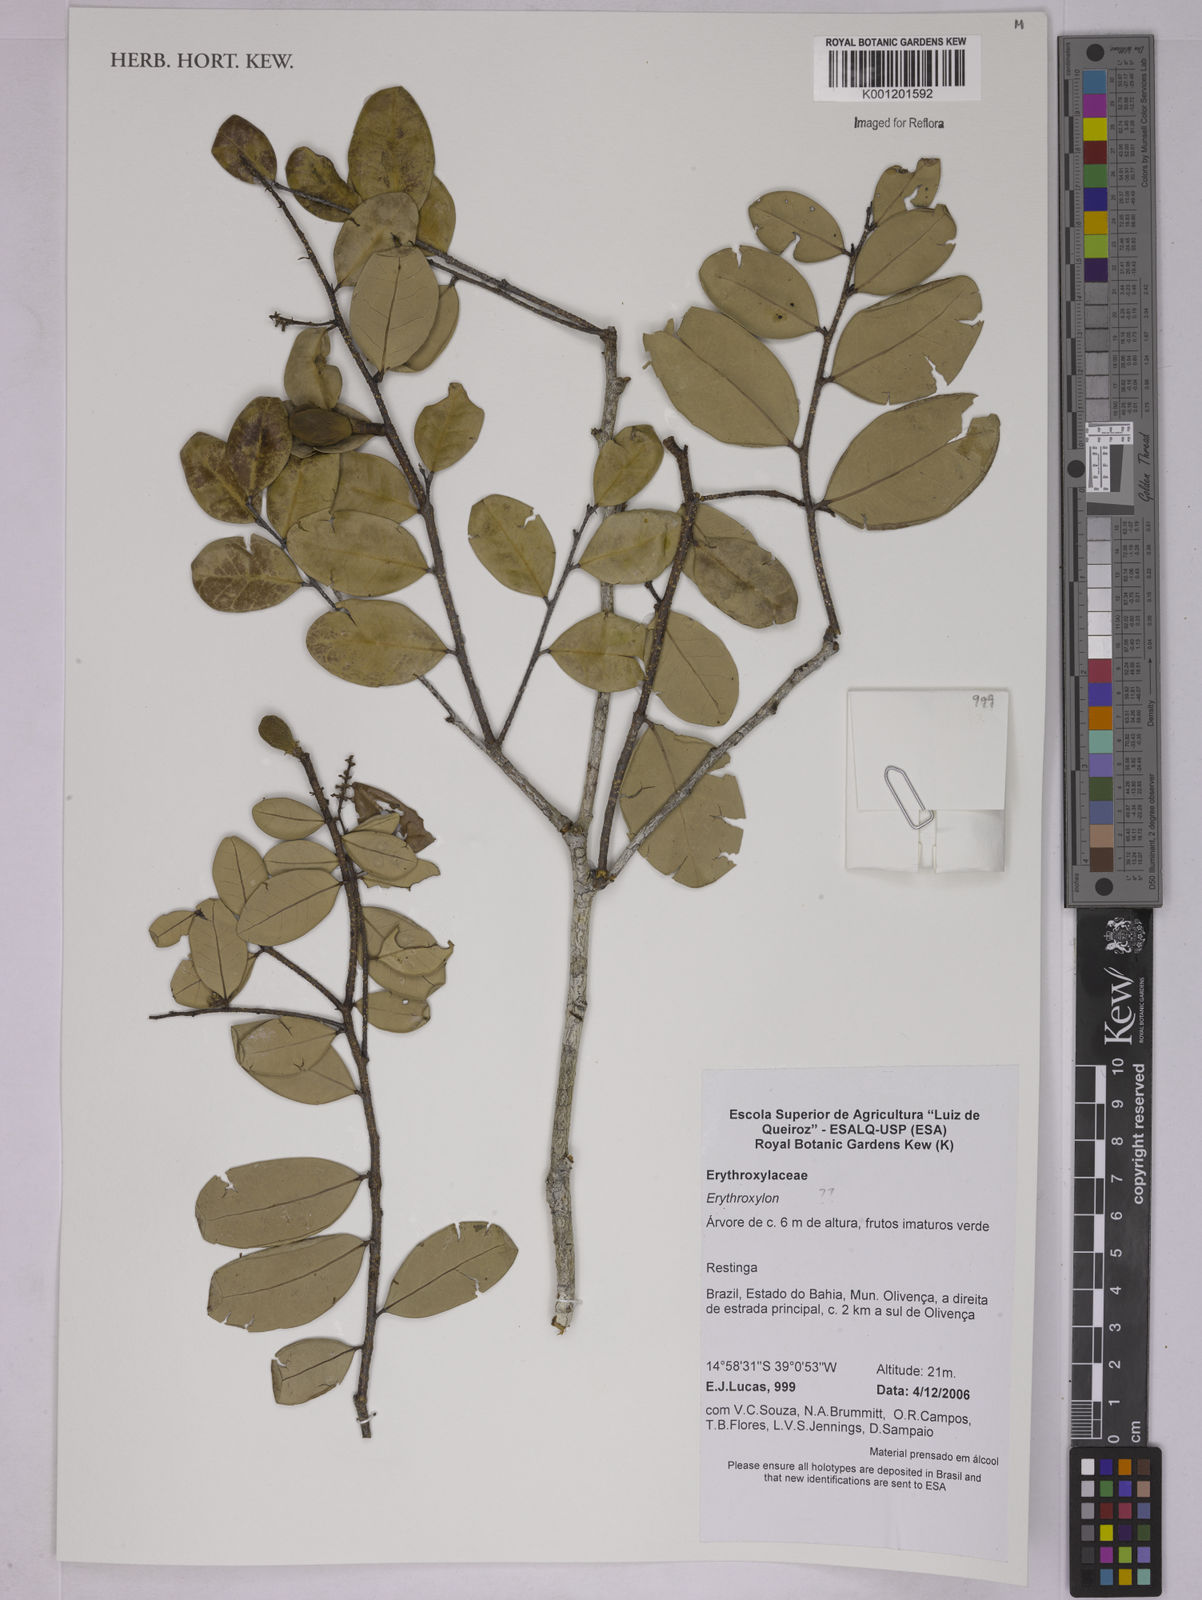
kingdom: Plantae
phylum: Tracheophyta
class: Magnoliopsida
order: Malpighiales
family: Erythroxylaceae
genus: Erythroxylum
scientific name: Erythroxylum
